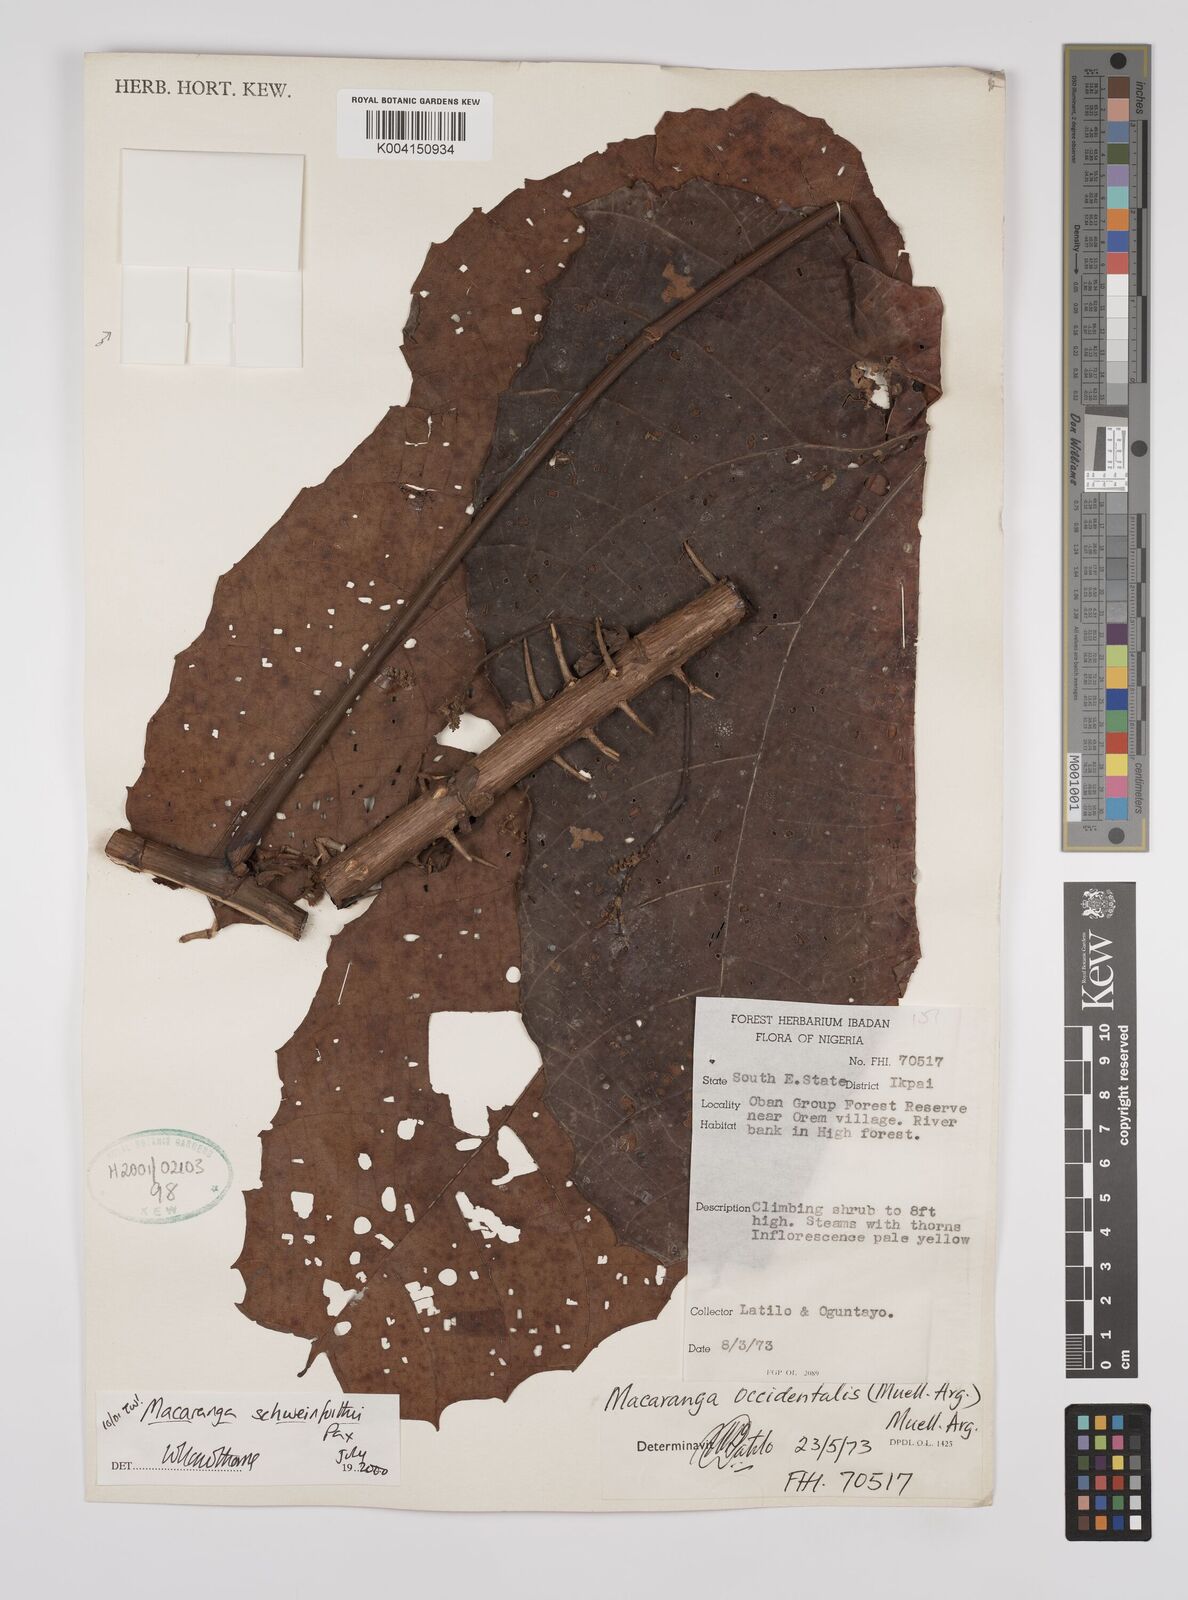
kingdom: Plantae
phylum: Tracheophyta
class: Magnoliopsida
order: Malpighiales
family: Euphorbiaceae
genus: Macaranga
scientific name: Macaranga schweinfurthii
